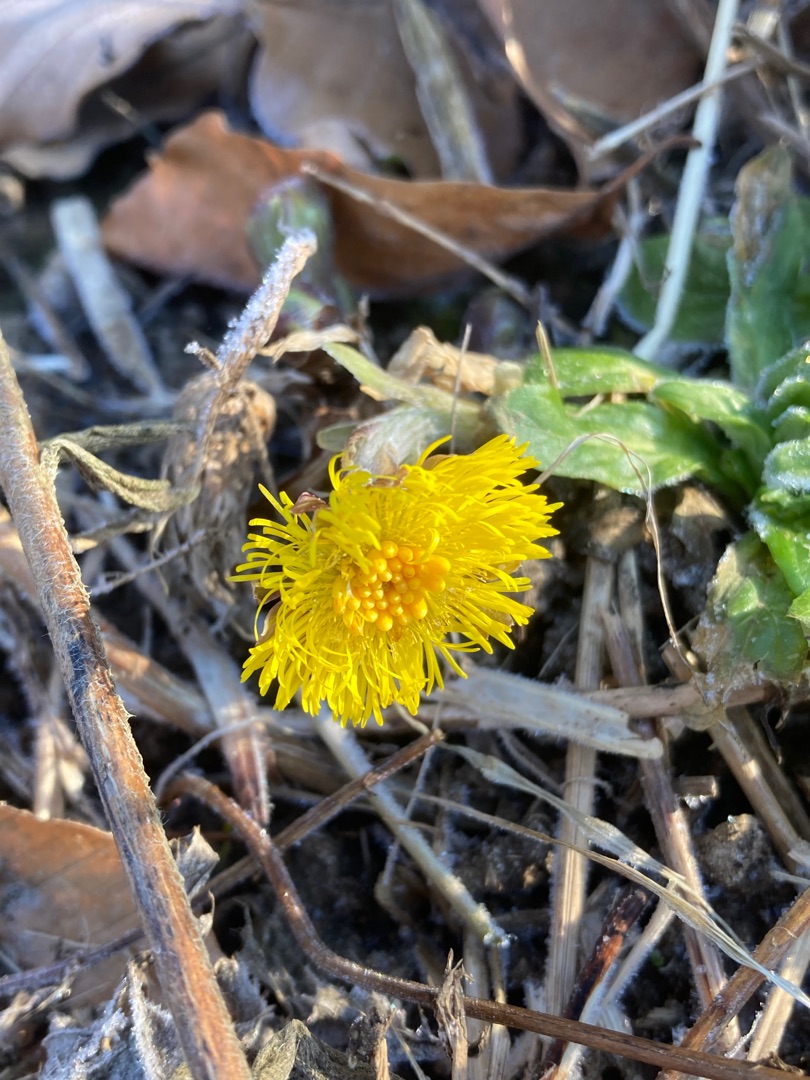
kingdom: Plantae
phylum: Tracheophyta
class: Magnoliopsida
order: Asterales
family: Asteraceae
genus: Tussilago
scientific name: Tussilago farfara
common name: Følfod
